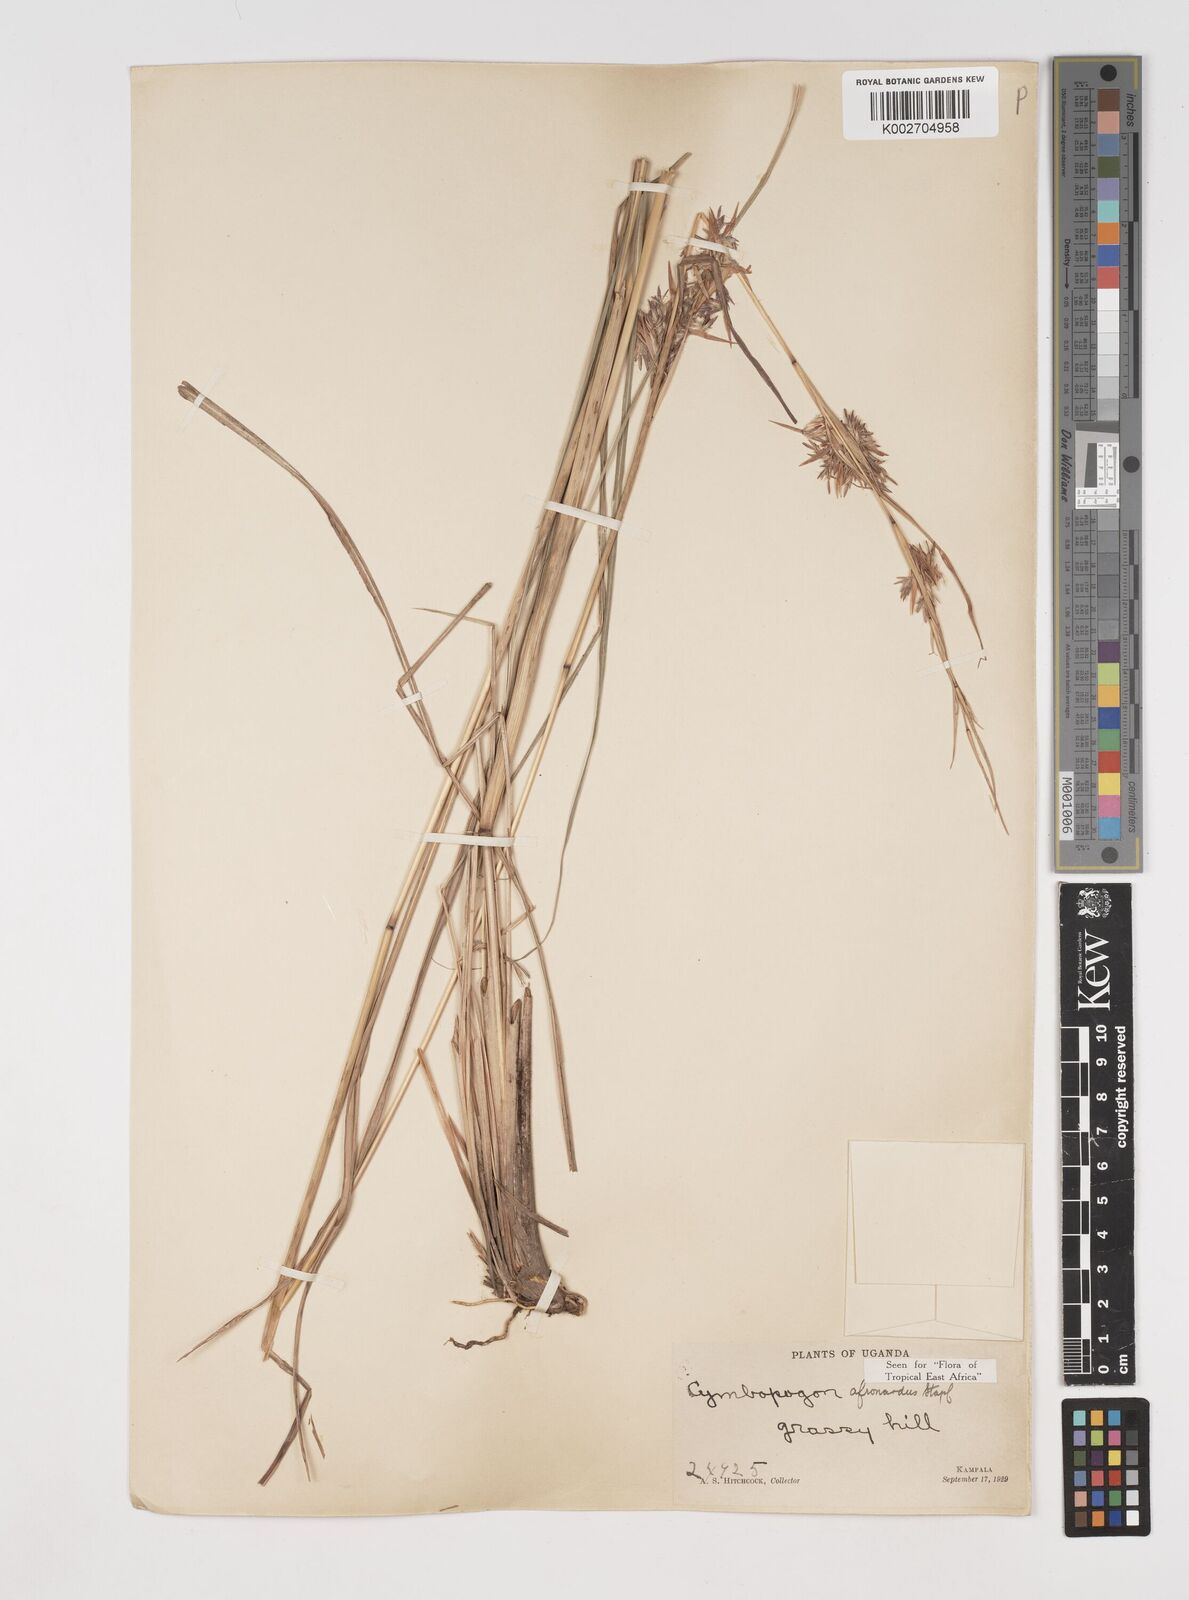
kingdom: Plantae
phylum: Tracheophyta
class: Liliopsida
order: Poales
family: Poaceae
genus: Cymbopogon
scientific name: Cymbopogon nardus
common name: Giant turpentine grass
